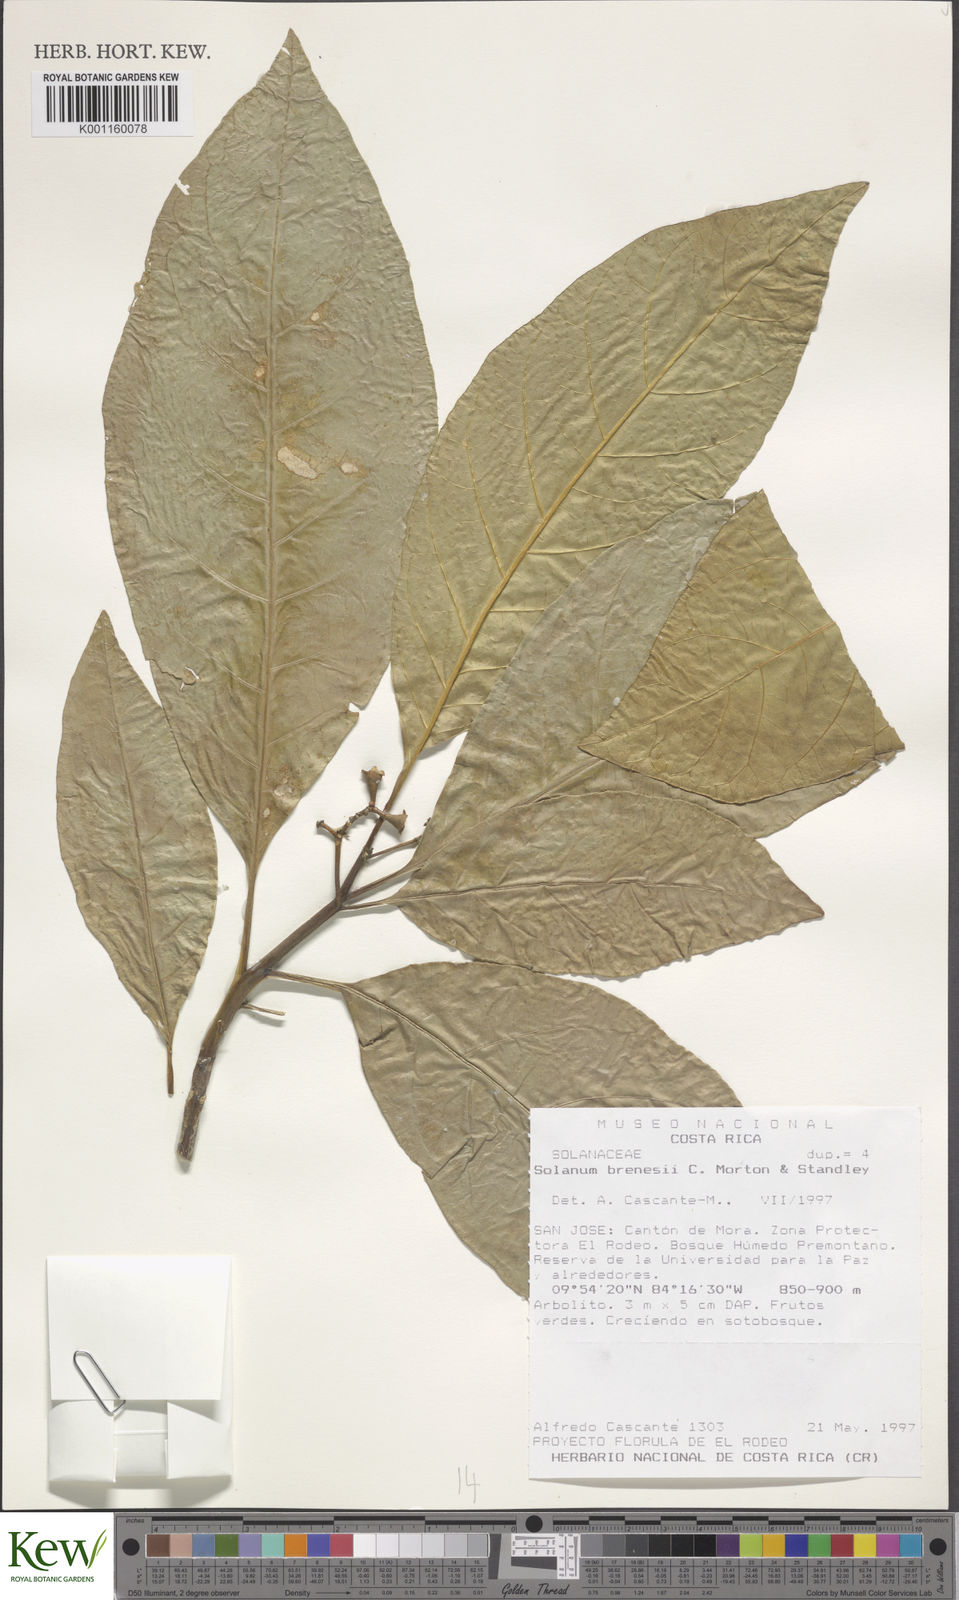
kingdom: Plantae
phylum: Tracheophyta
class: Magnoliopsida
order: Solanales
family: Solanaceae
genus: Solanum
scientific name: Solanum rovirosanum
